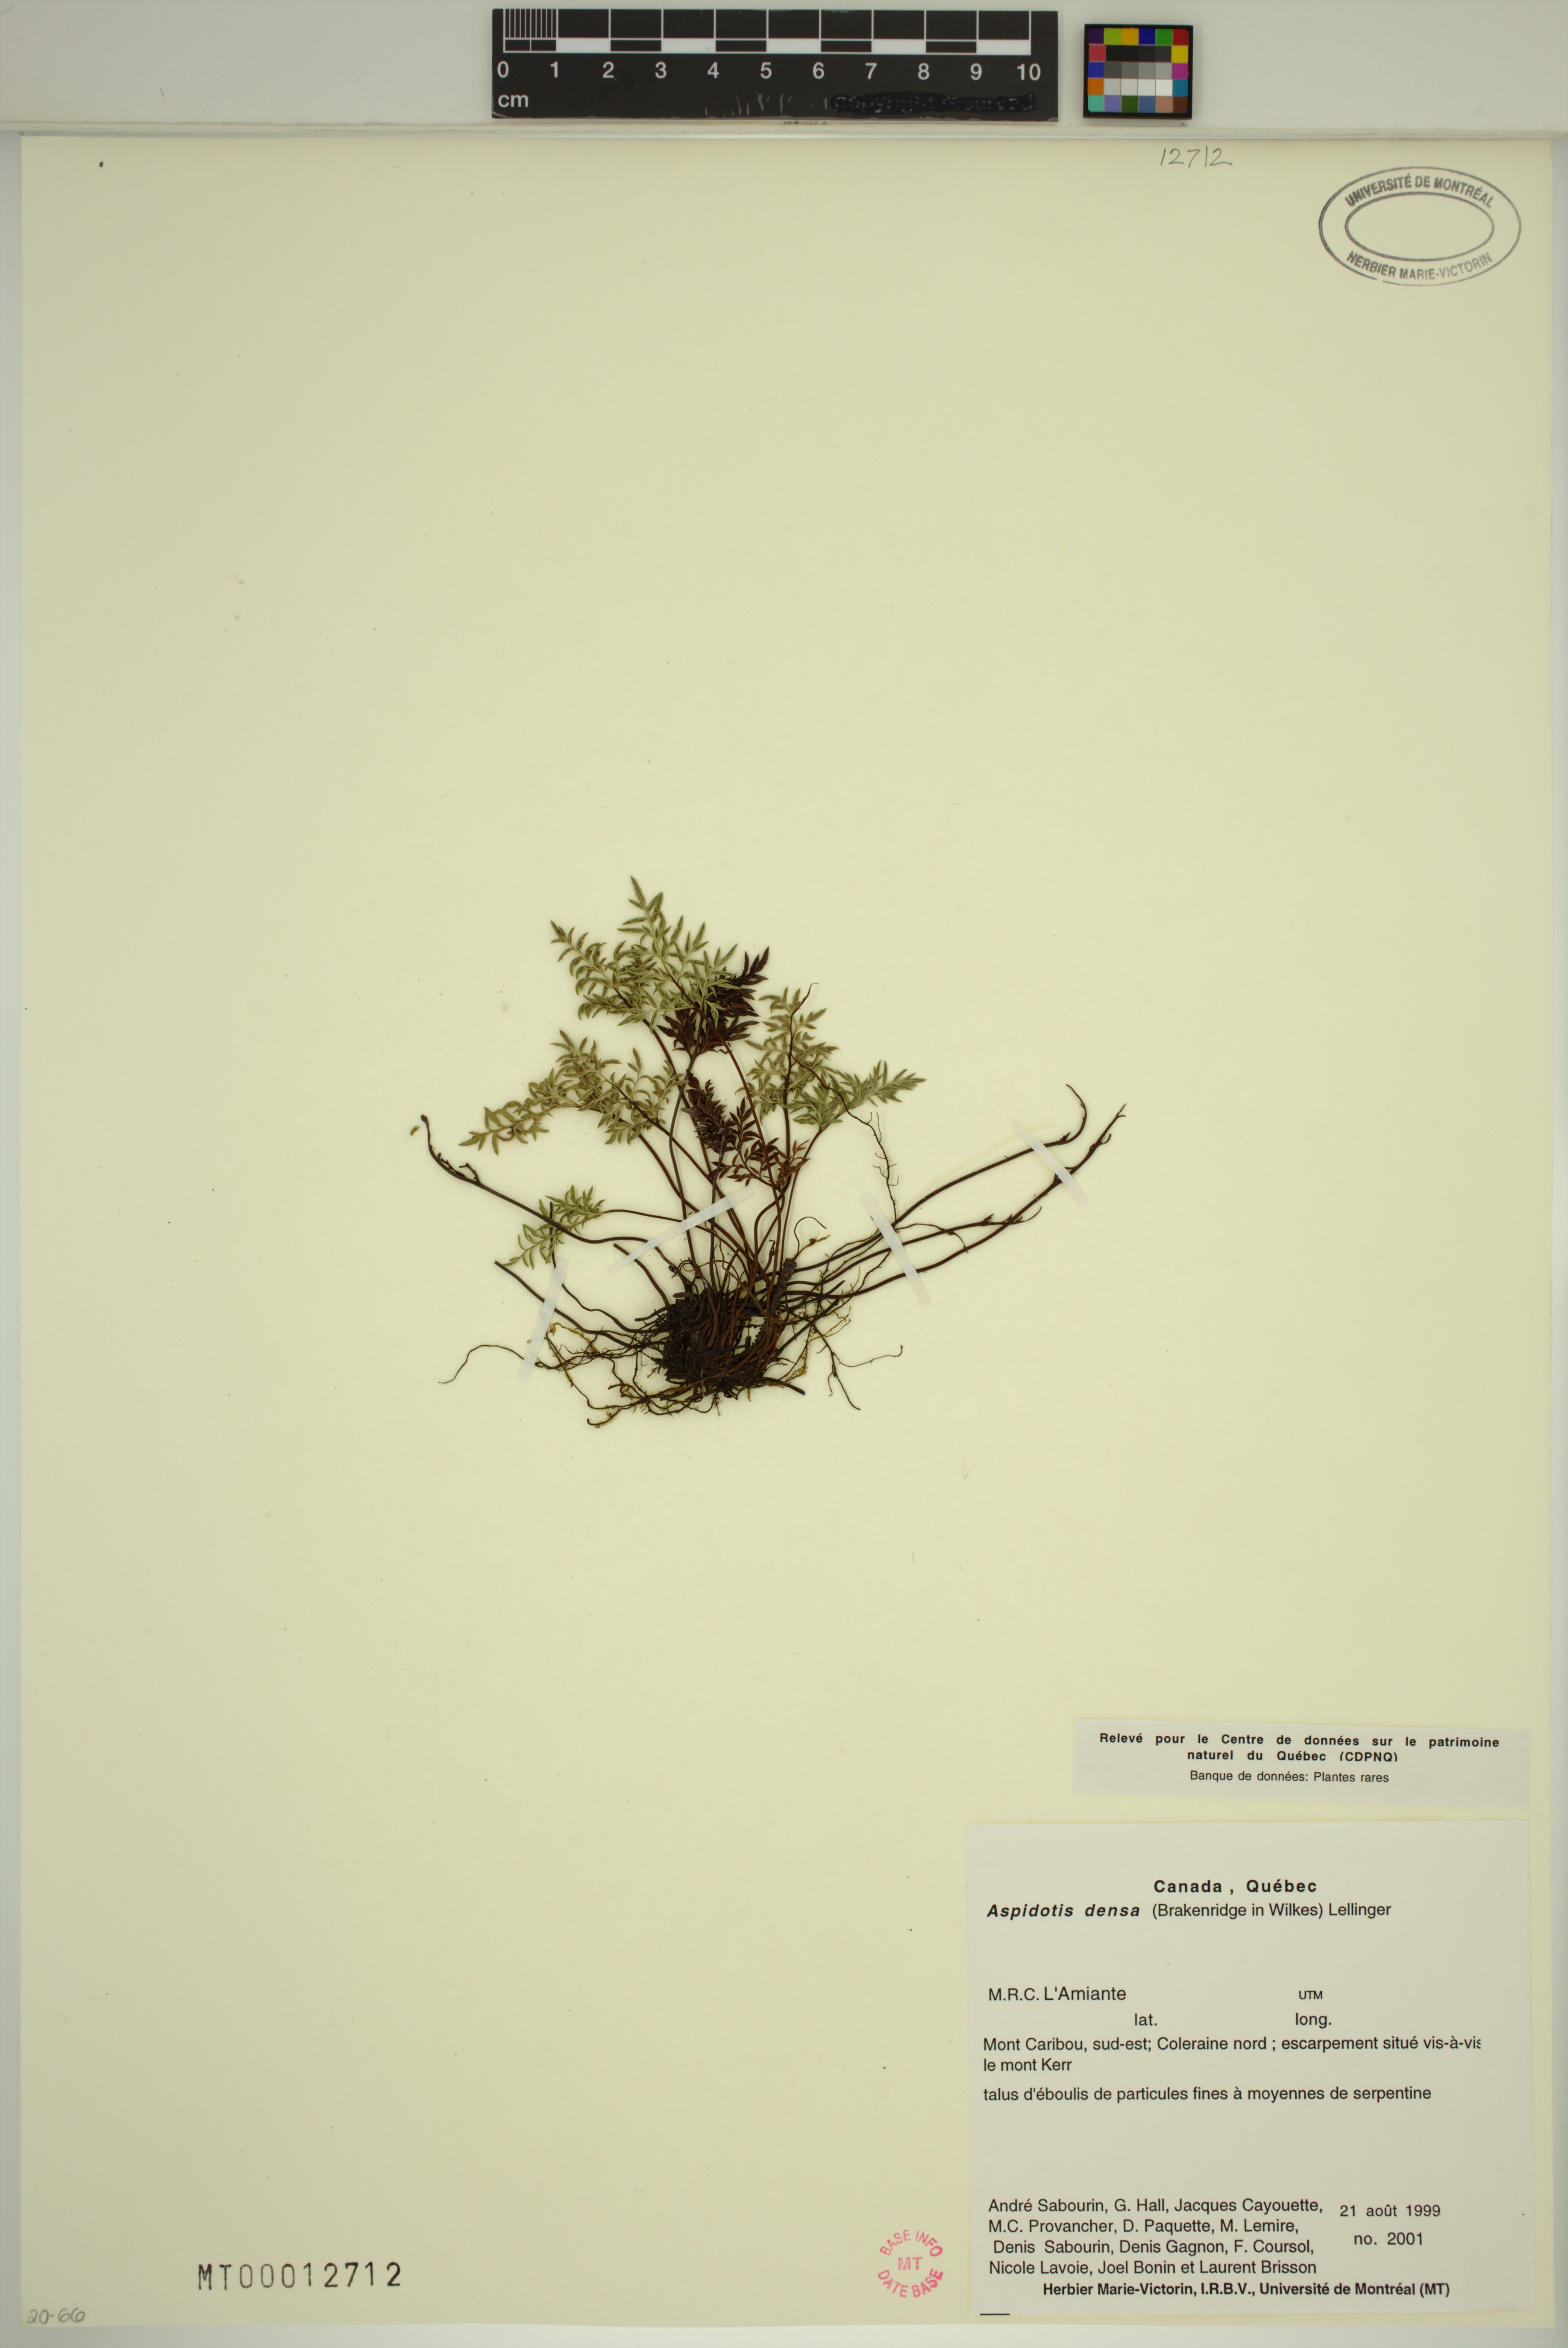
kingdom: Plantae
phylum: Tracheophyta
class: Polypodiopsida
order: Polypodiales
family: Pteridaceae
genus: Aspidotis
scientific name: Aspidotis densa
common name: Indian's dream
